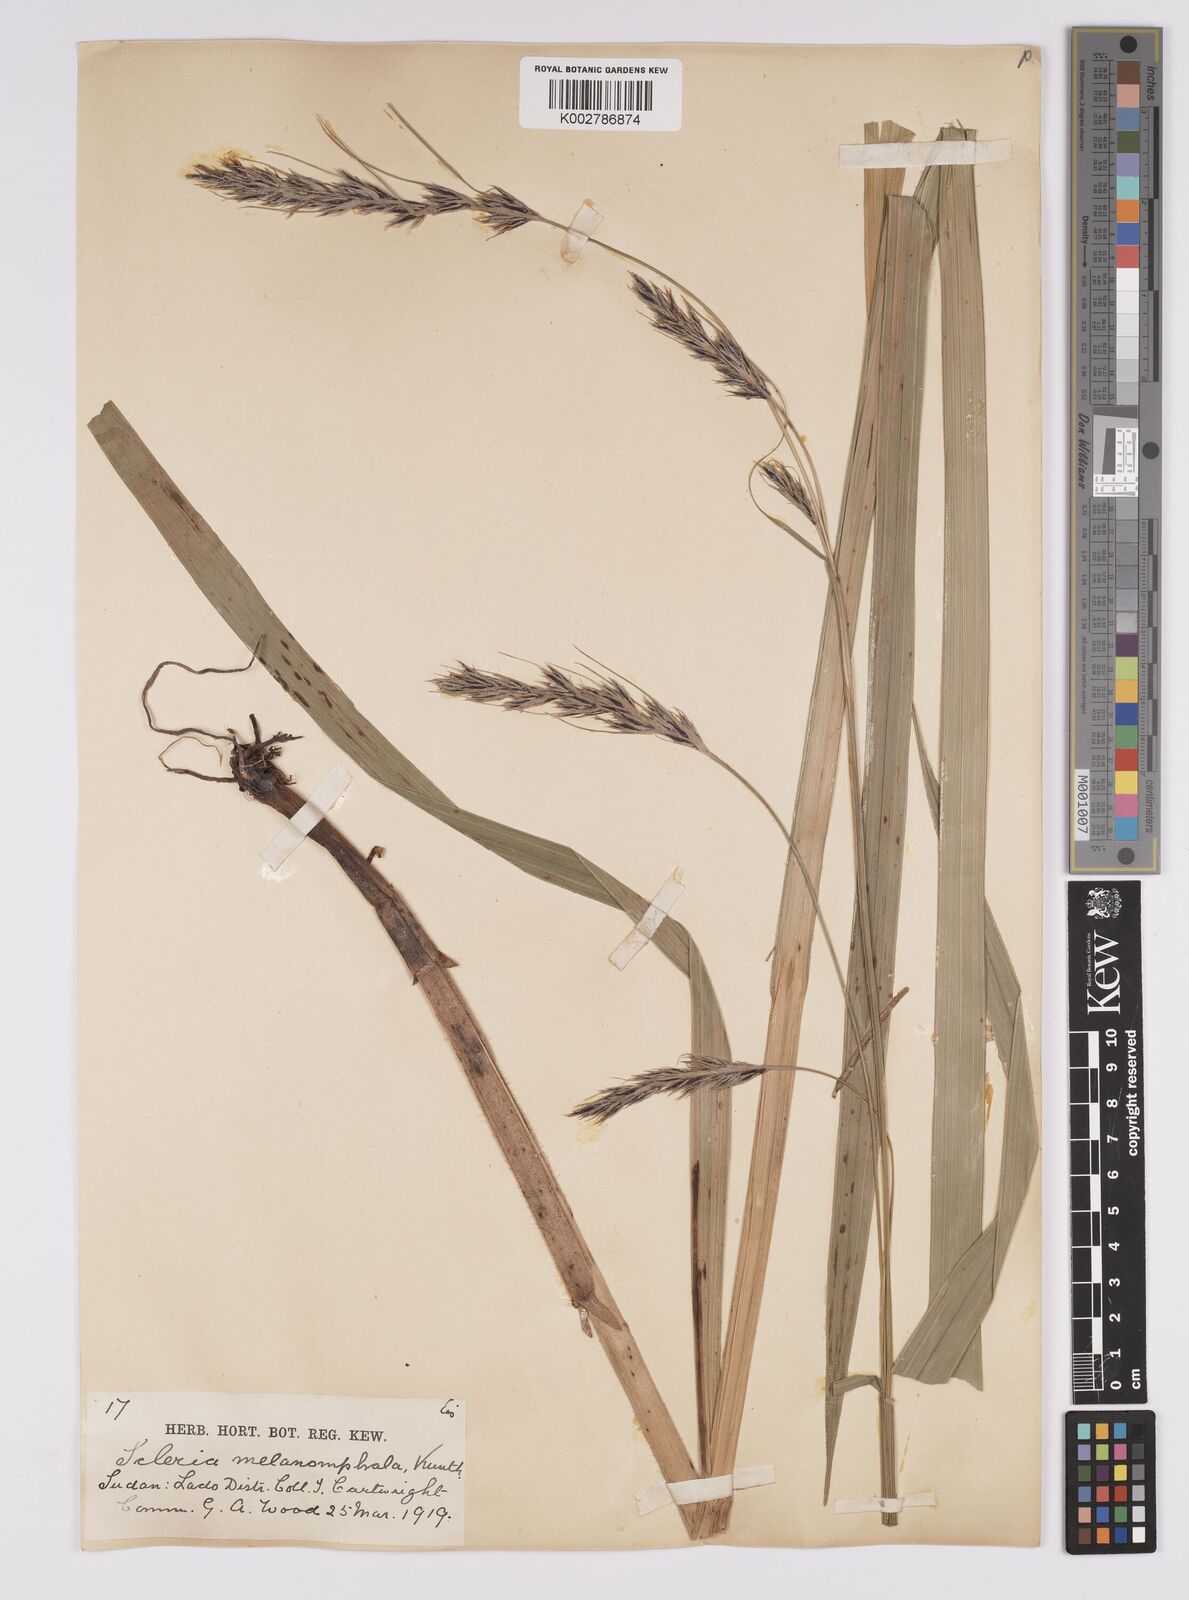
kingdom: Plantae
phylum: Tracheophyta
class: Liliopsida
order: Poales
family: Cyperaceae
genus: Scleria
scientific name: Scleria melanomphala
